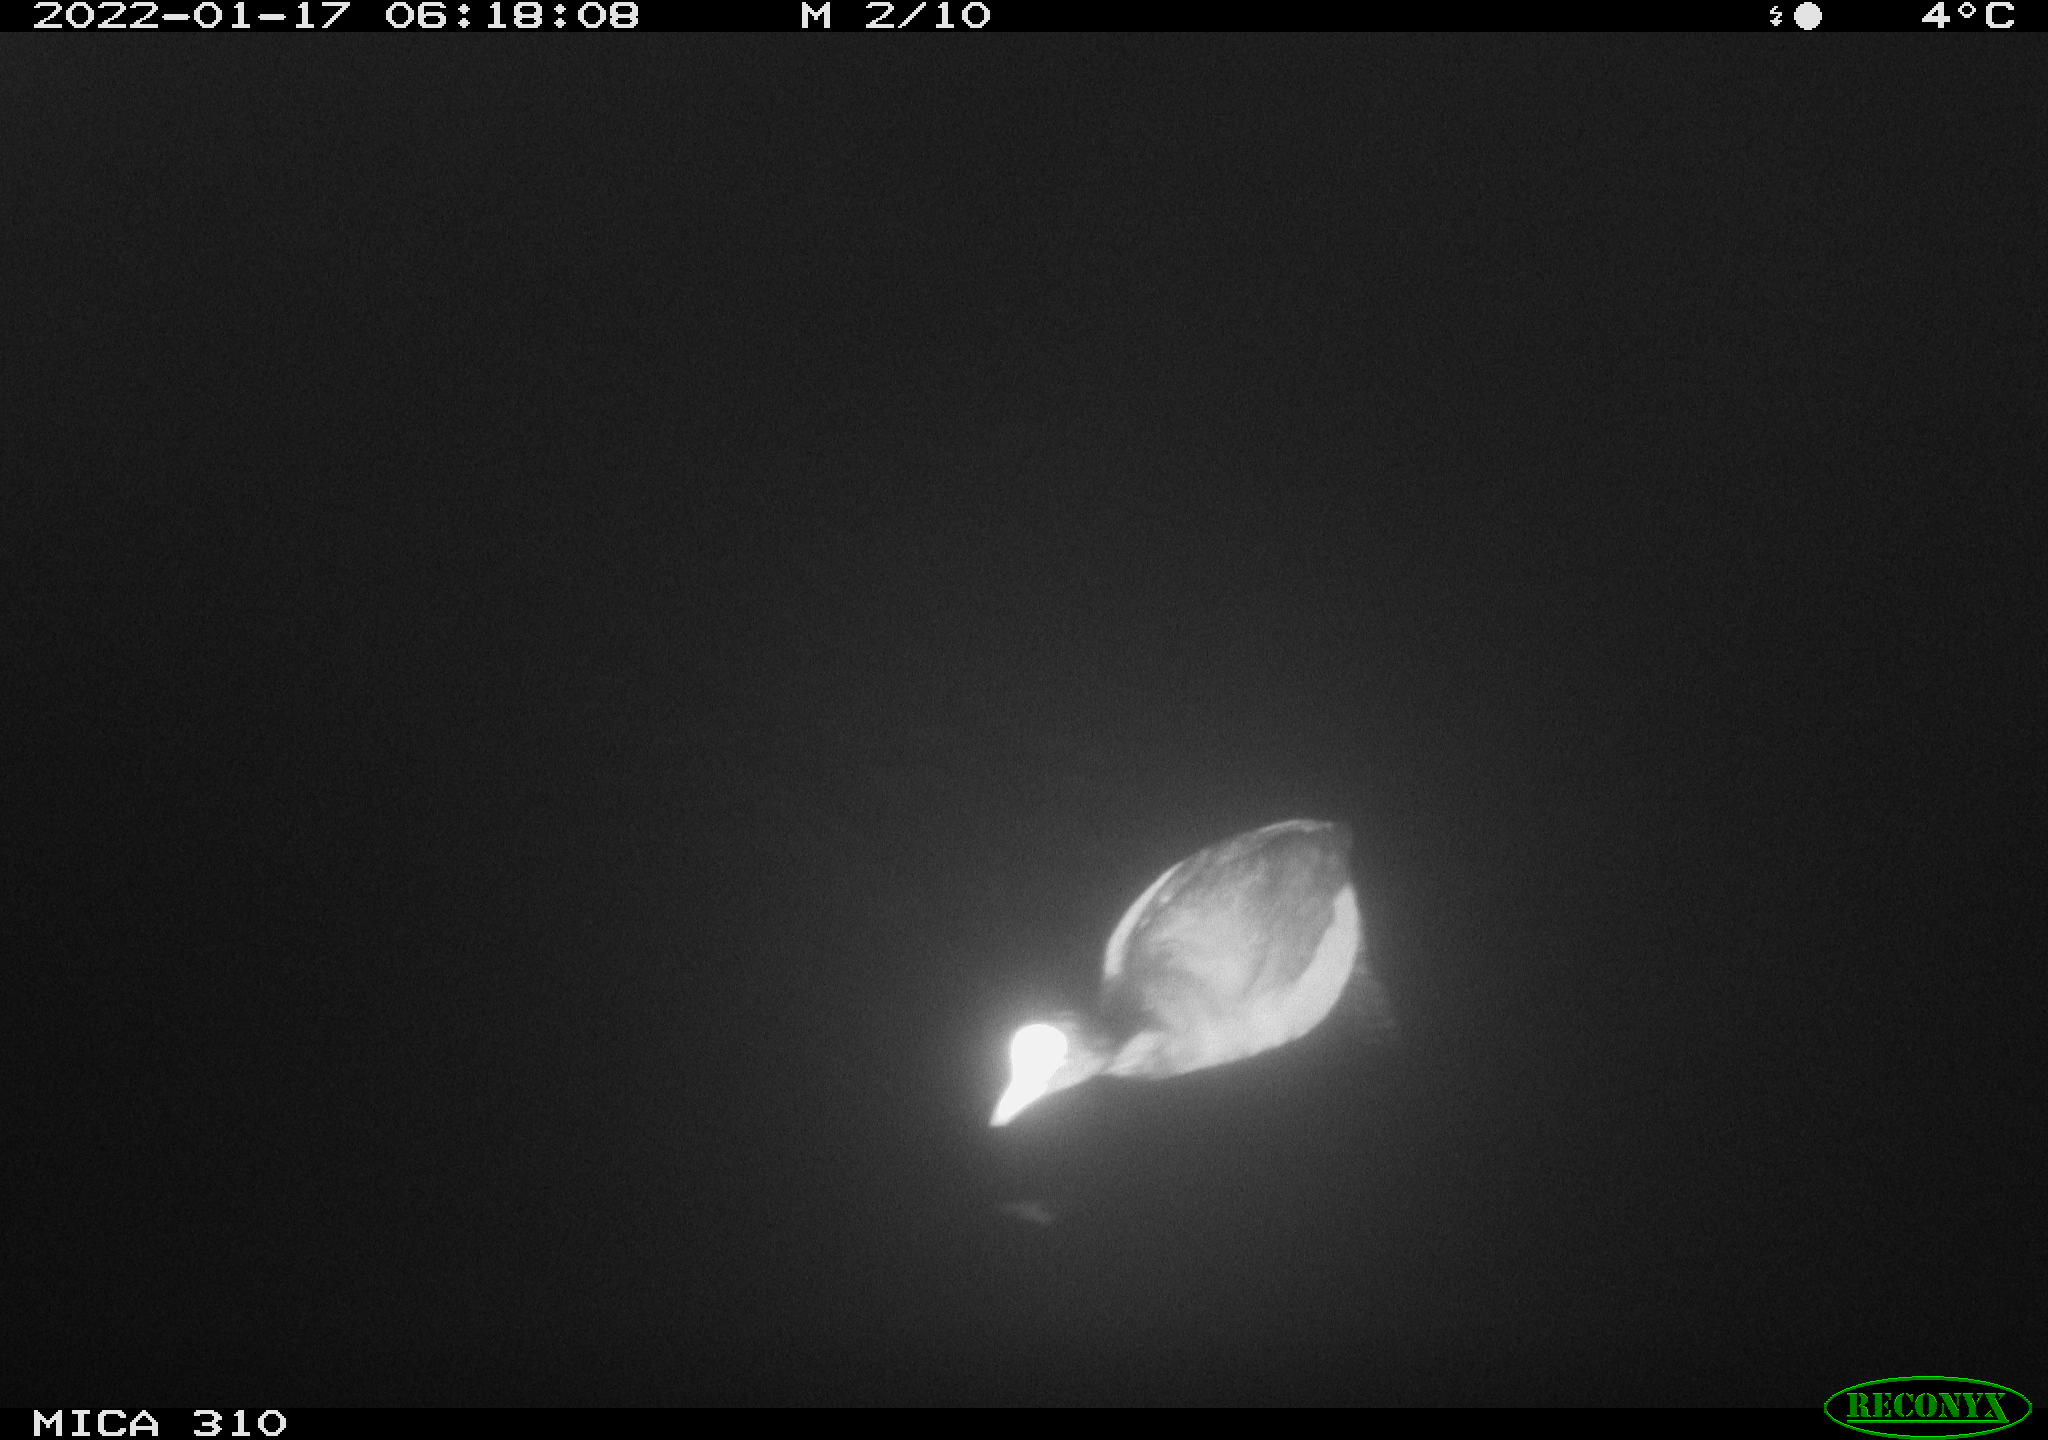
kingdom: Animalia
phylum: Chordata
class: Aves
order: Anseriformes
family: Anatidae
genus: Anas
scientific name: Anas
